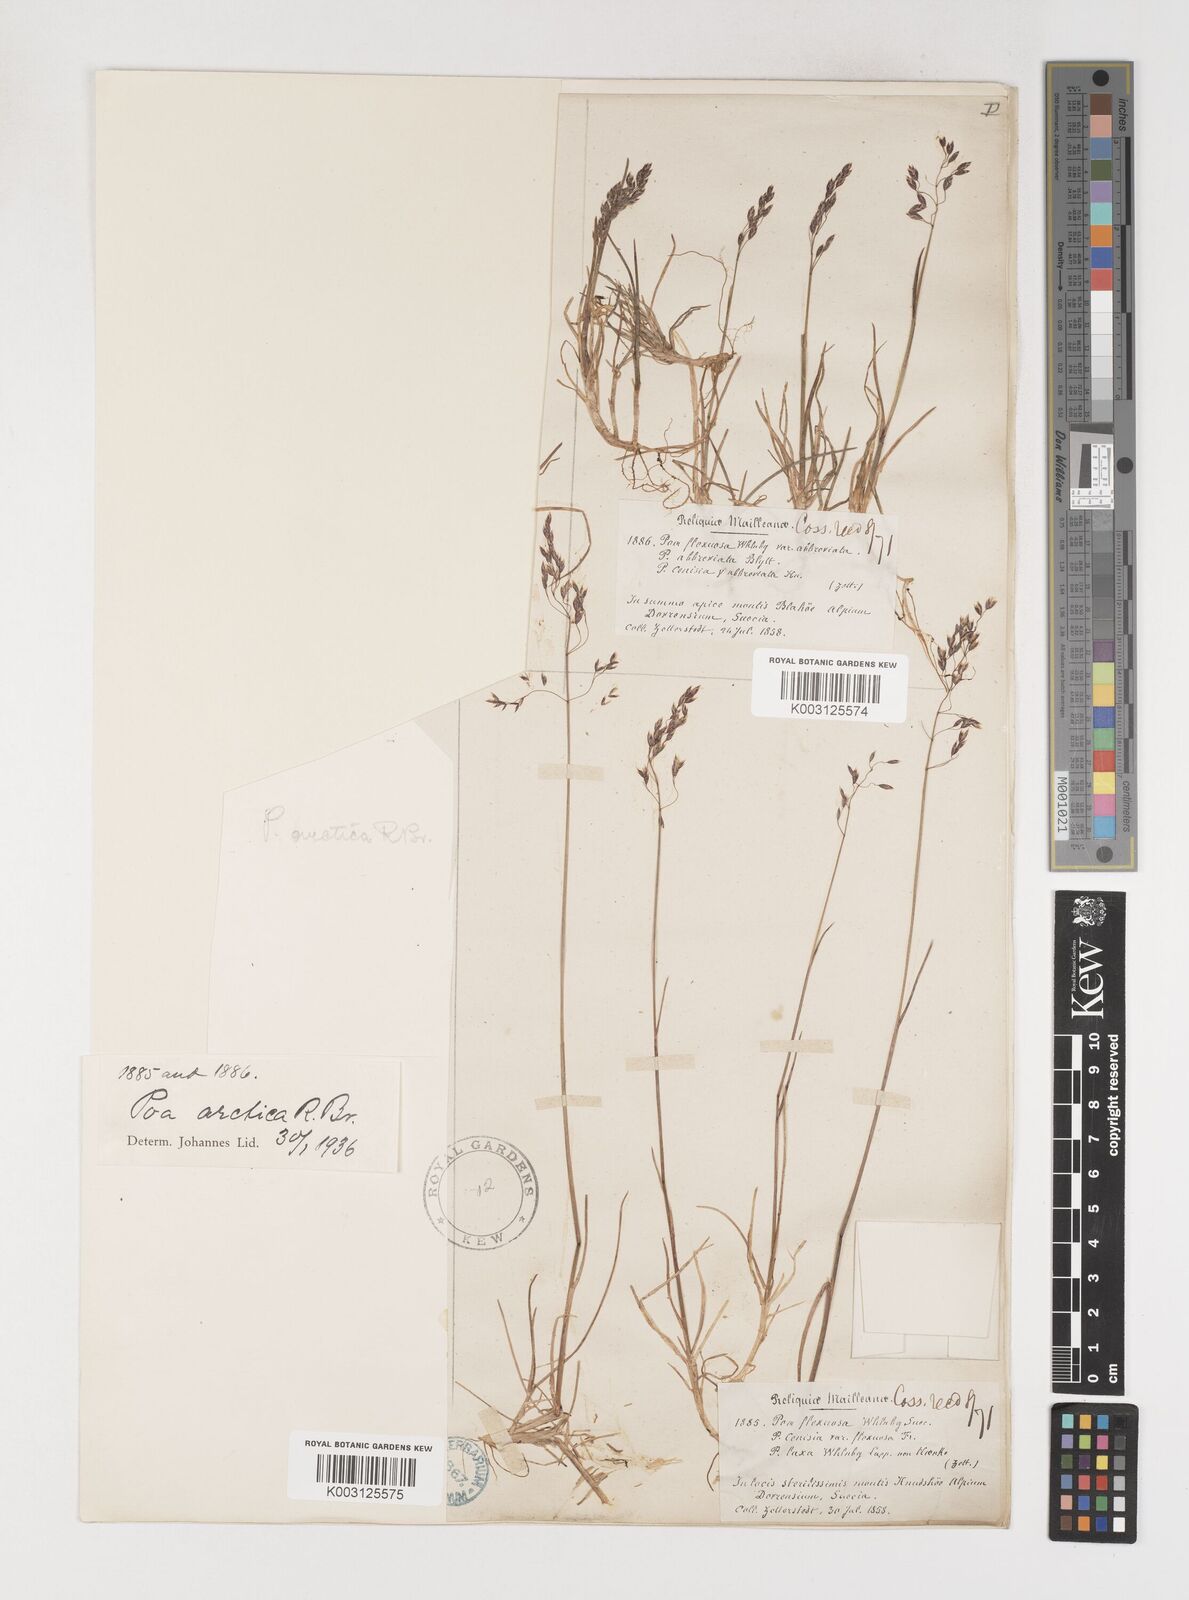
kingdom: Plantae
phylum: Tracheophyta
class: Liliopsida
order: Poales
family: Poaceae
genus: Poa
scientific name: Poa arctica
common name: Arctic bluegrass
